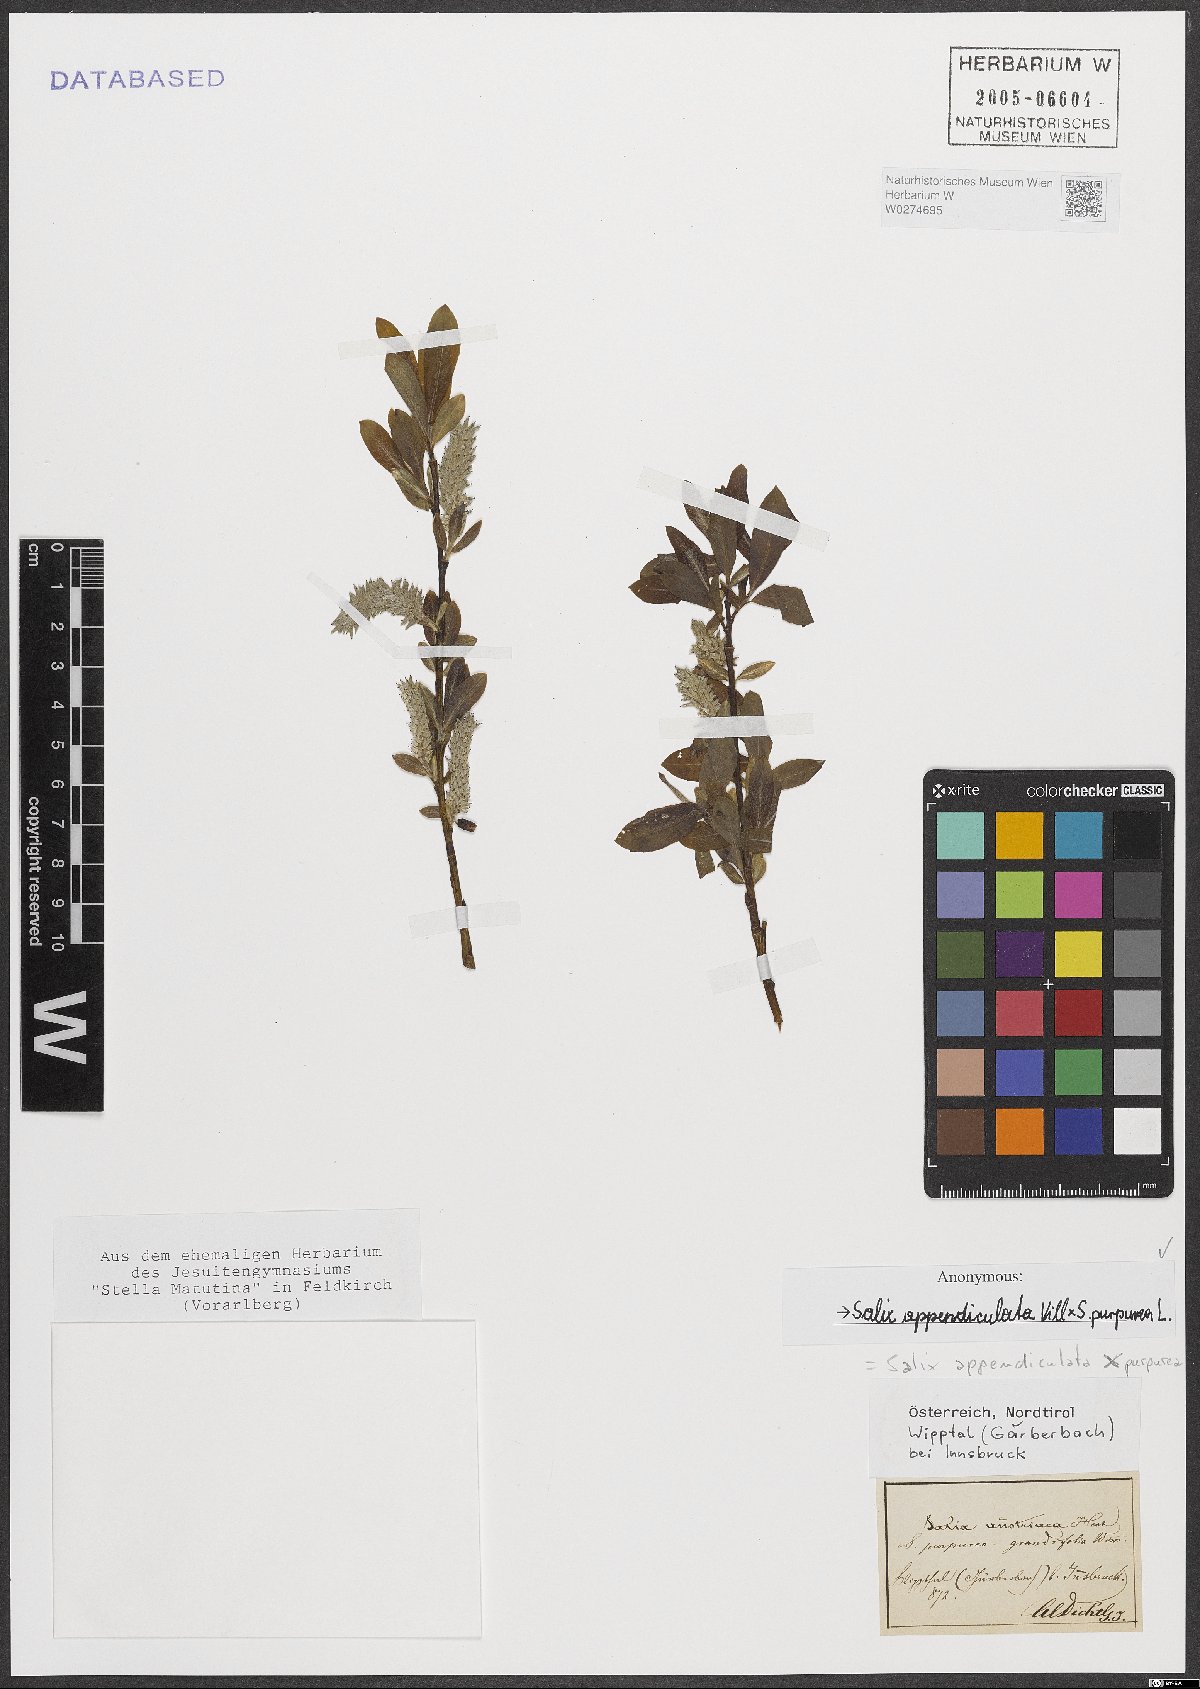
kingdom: Plantae
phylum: Tracheophyta
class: Magnoliopsida
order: Malpighiales
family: Salicaceae
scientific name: Salicaceae
